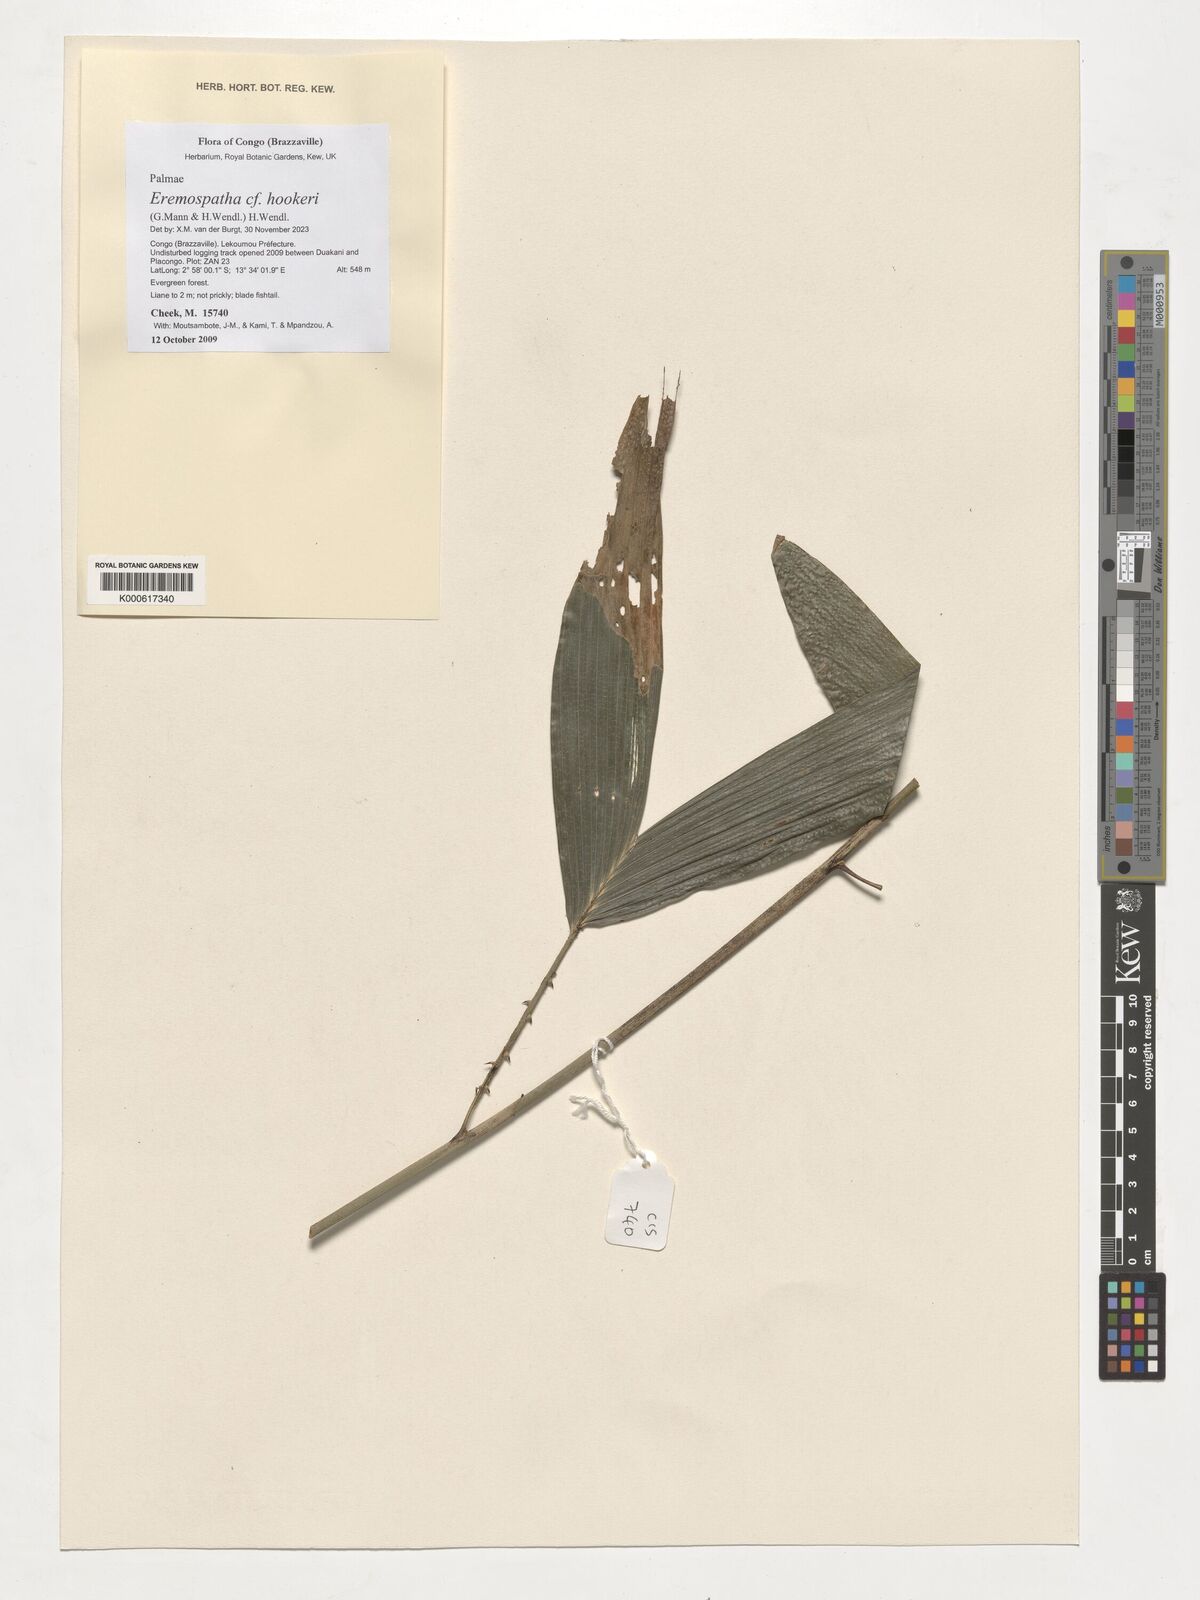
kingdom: Plantae
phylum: Tracheophyta
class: Liliopsida
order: Arecales
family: Arecaceae
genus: Eremospatha
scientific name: Eremospatha hookeri
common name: Rattan
